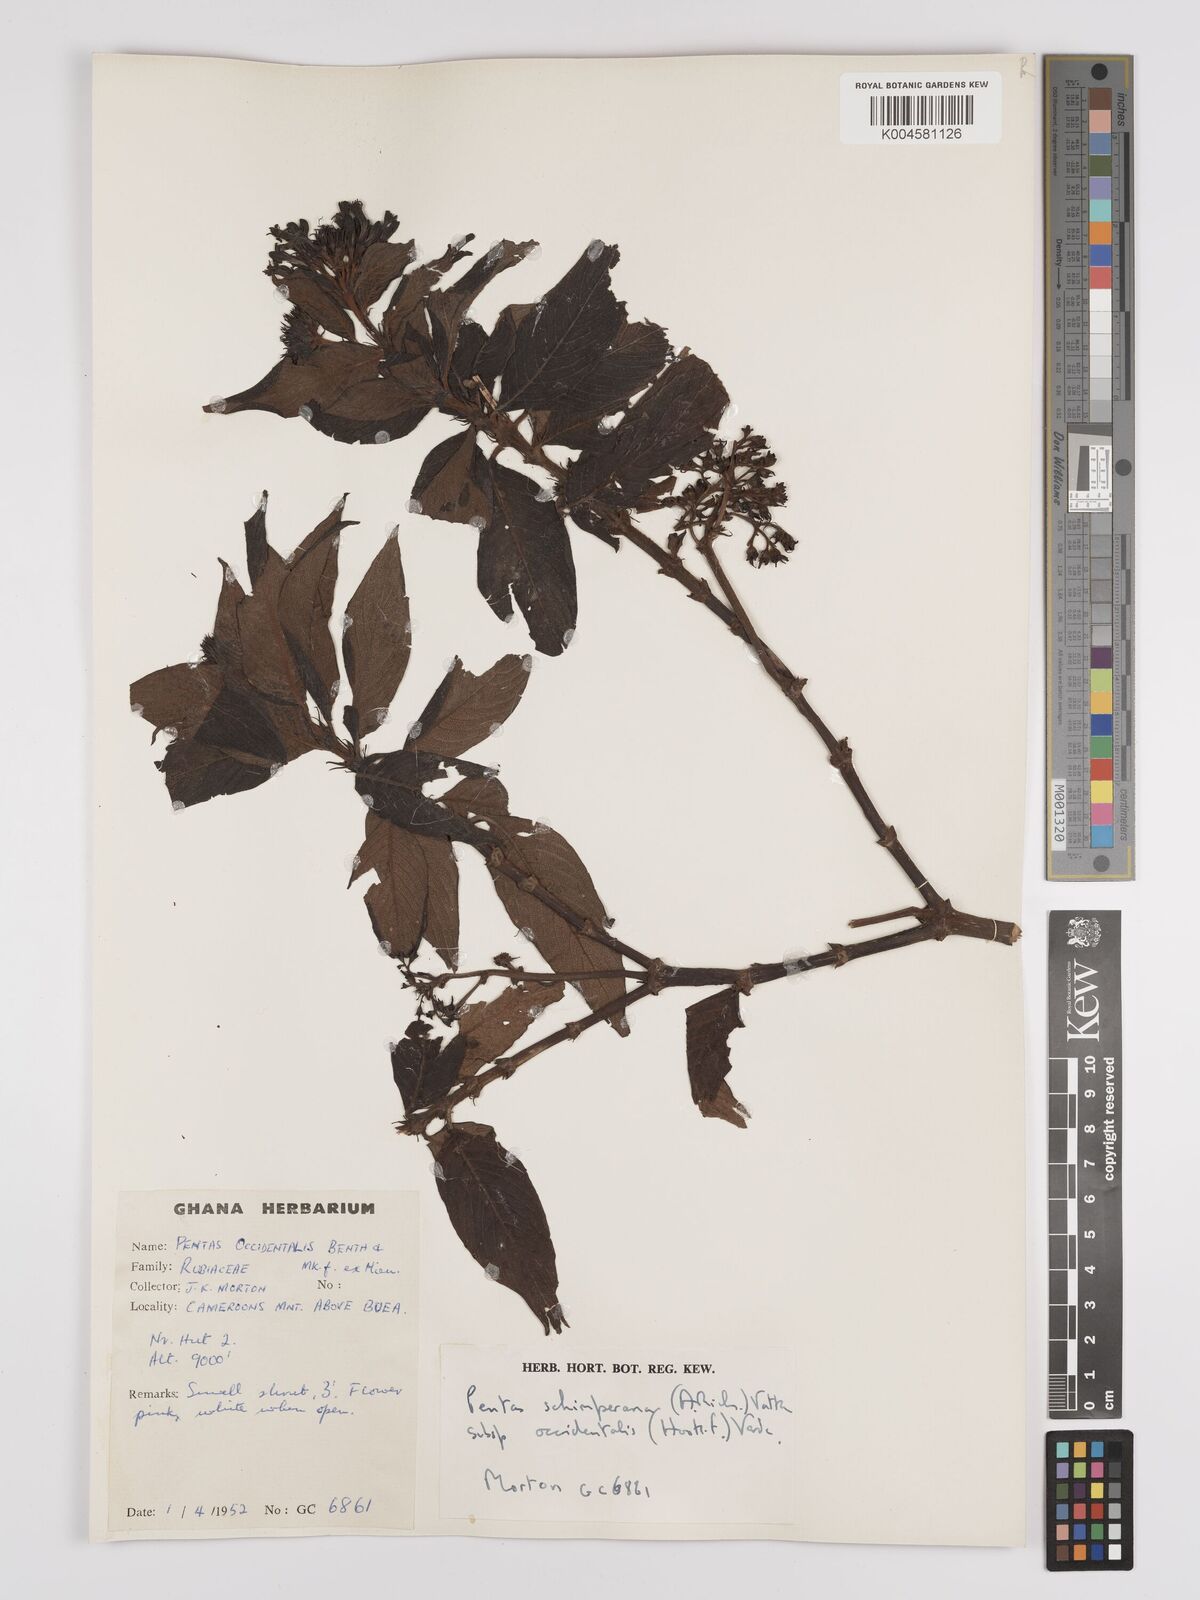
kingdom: Plantae
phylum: Tracheophyta
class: Magnoliopsida
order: Gentianales
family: Rubiaceae
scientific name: Rubiaceae
